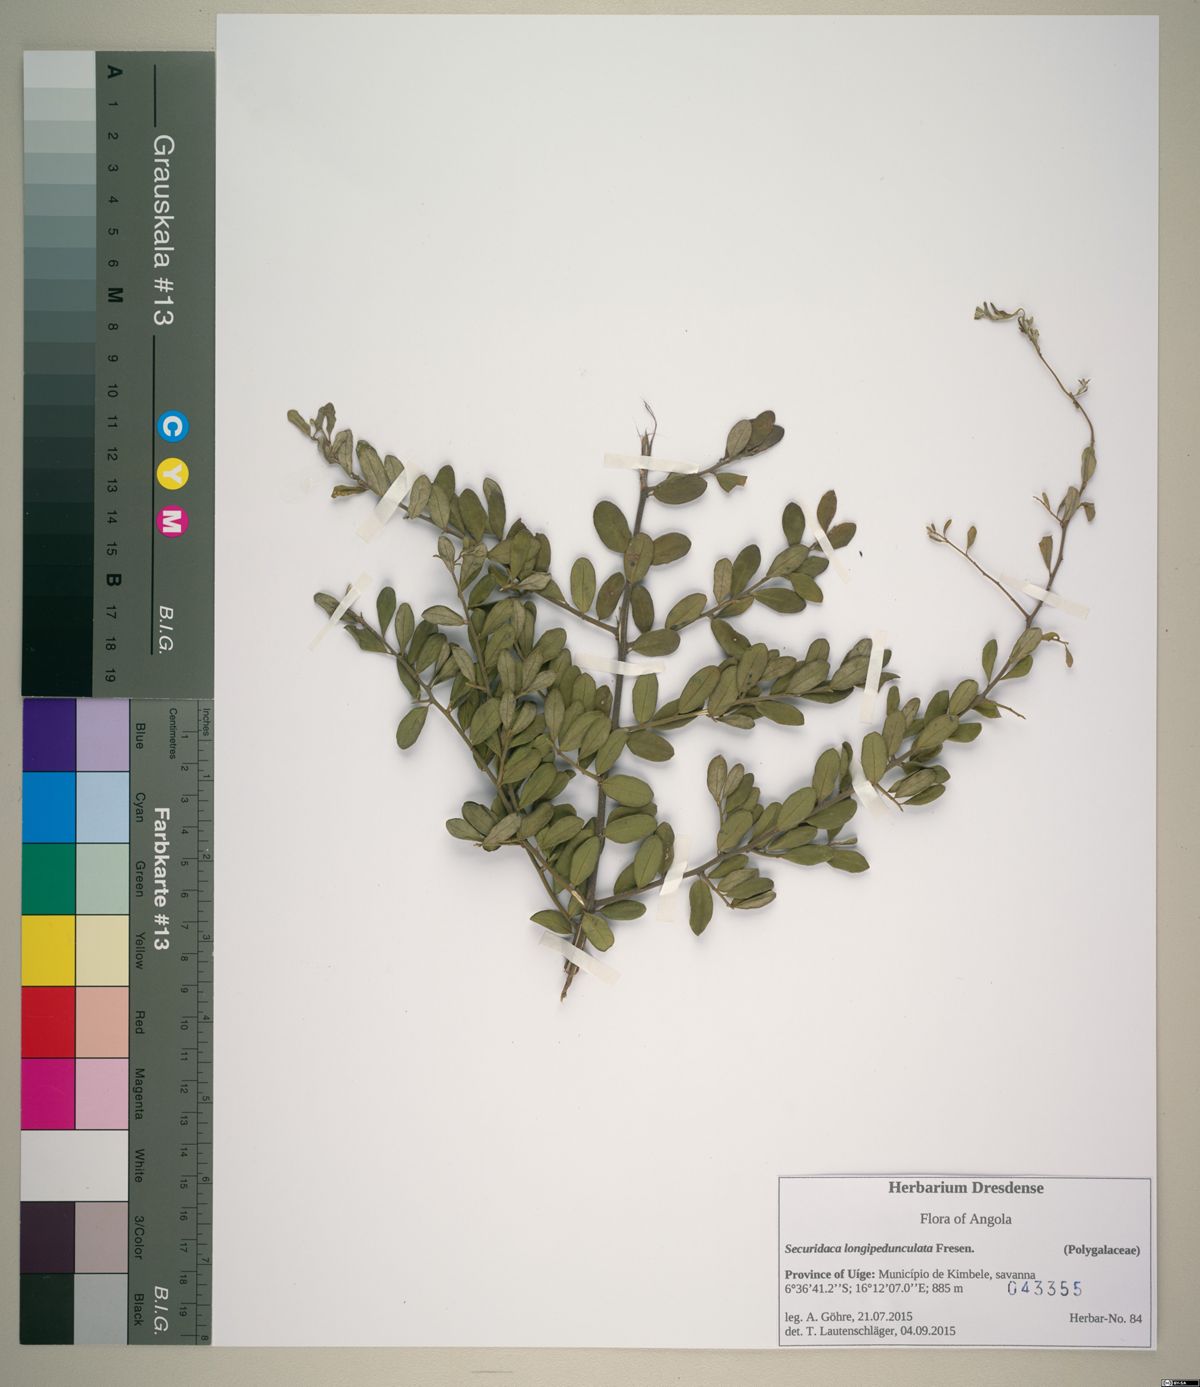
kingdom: Plantae
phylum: Tracheophyta
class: Magnoliopsida
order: Fabales
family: Polygalaceae
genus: Securidaca
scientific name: Securidaca longepedunculata
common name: Violet tree
